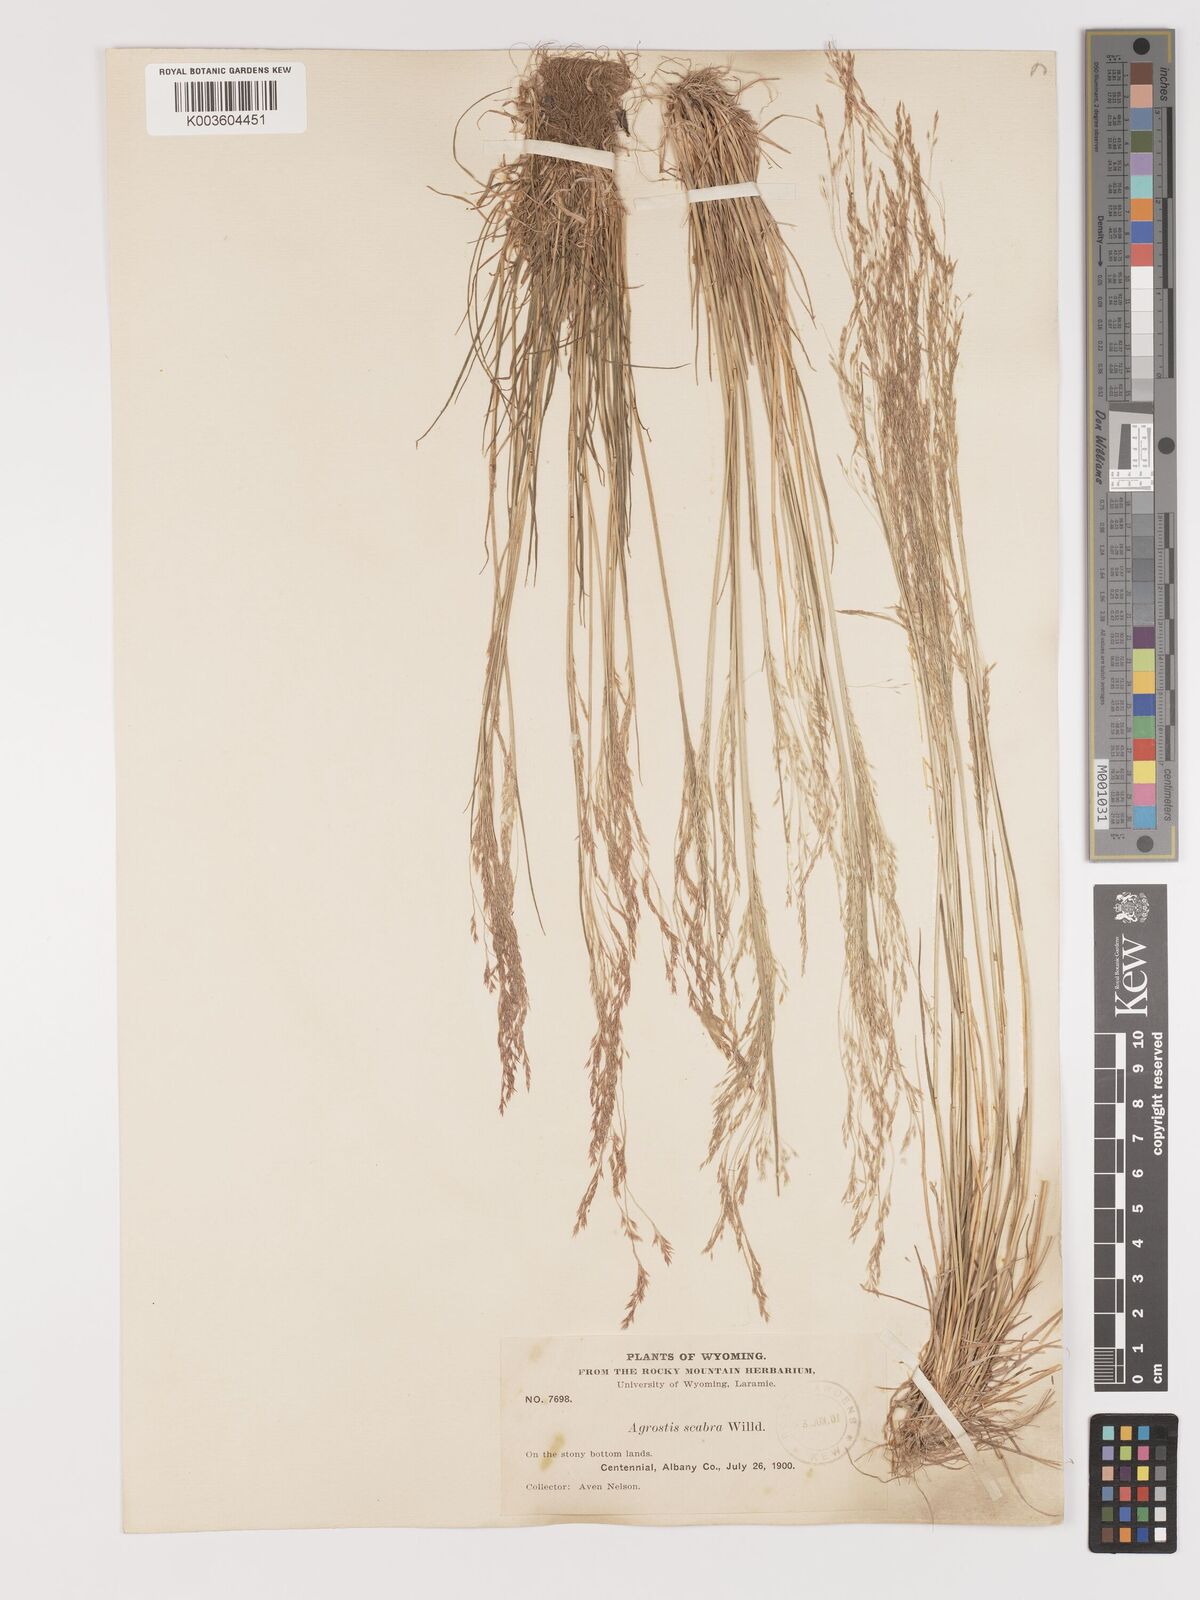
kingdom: Plantae
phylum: Tracheophyta
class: Liliopsida
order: Poales
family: Poaceae
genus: Agrostis
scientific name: Agrostis hyemalis
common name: Small bent
